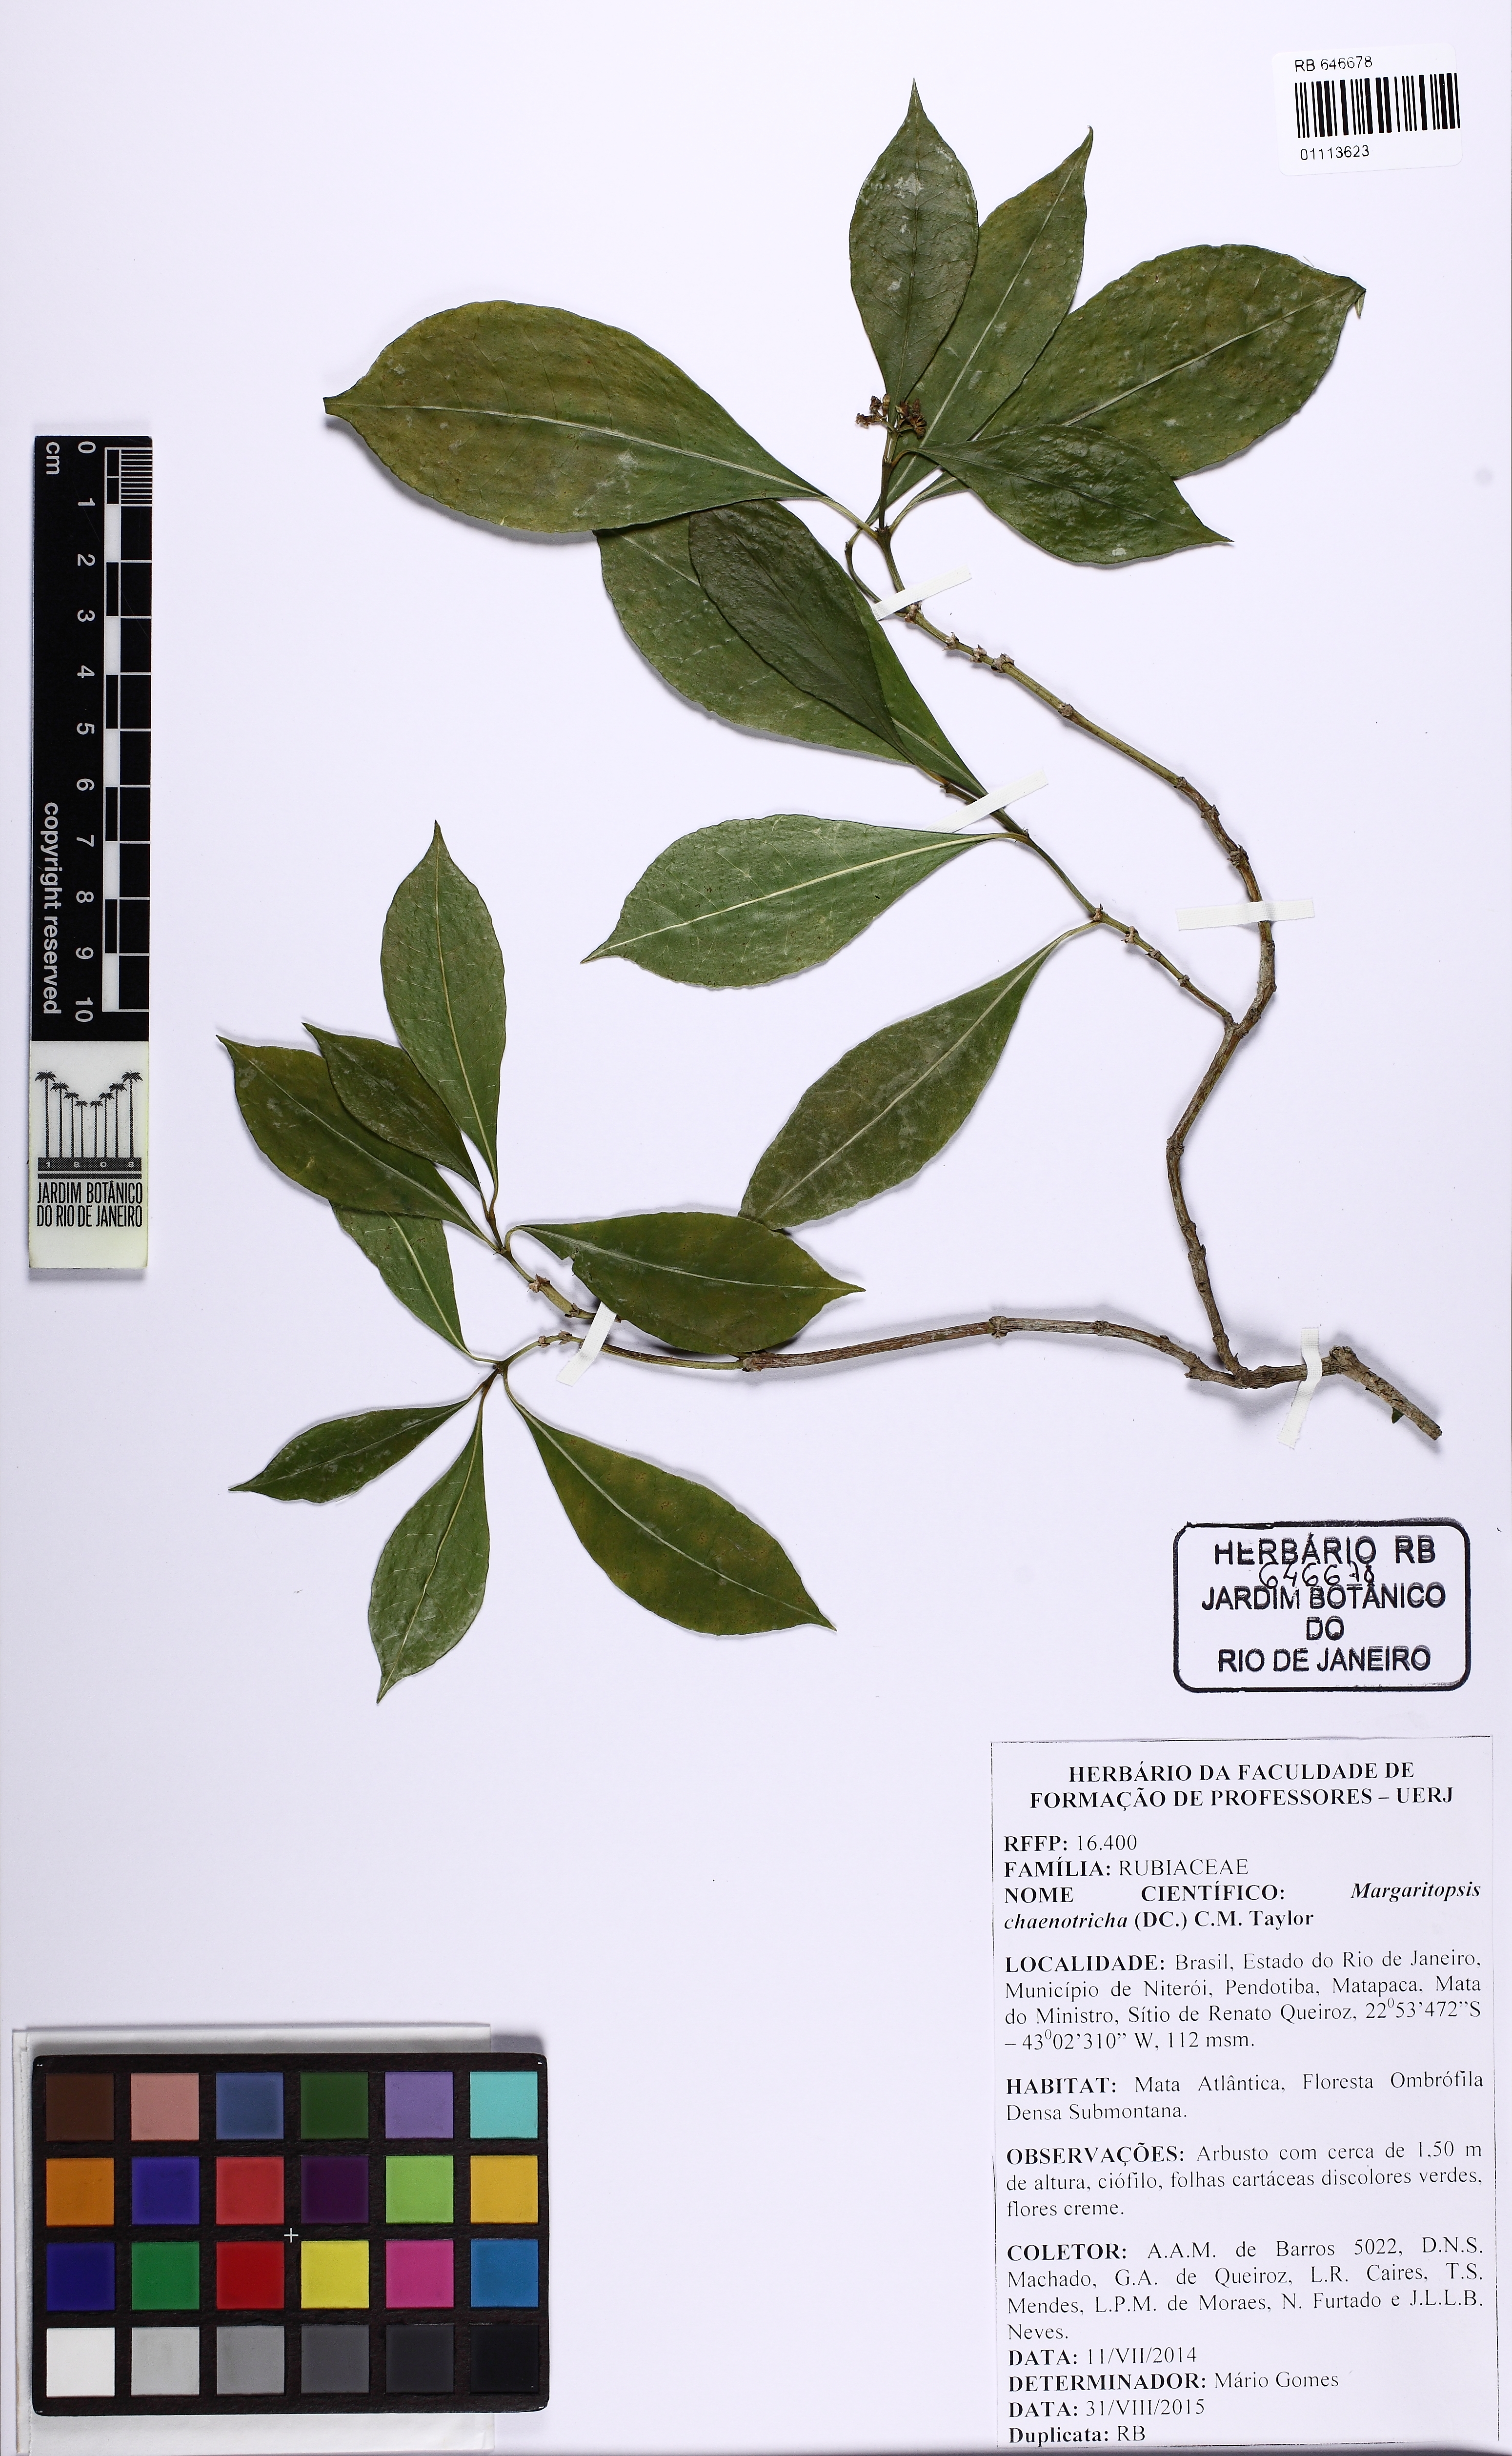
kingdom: Plantae
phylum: Tracheophyta
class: Magnoliopsida
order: Gentianales
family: Rubiaceae
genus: Eumachia
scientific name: Eumachia chaenotricha
